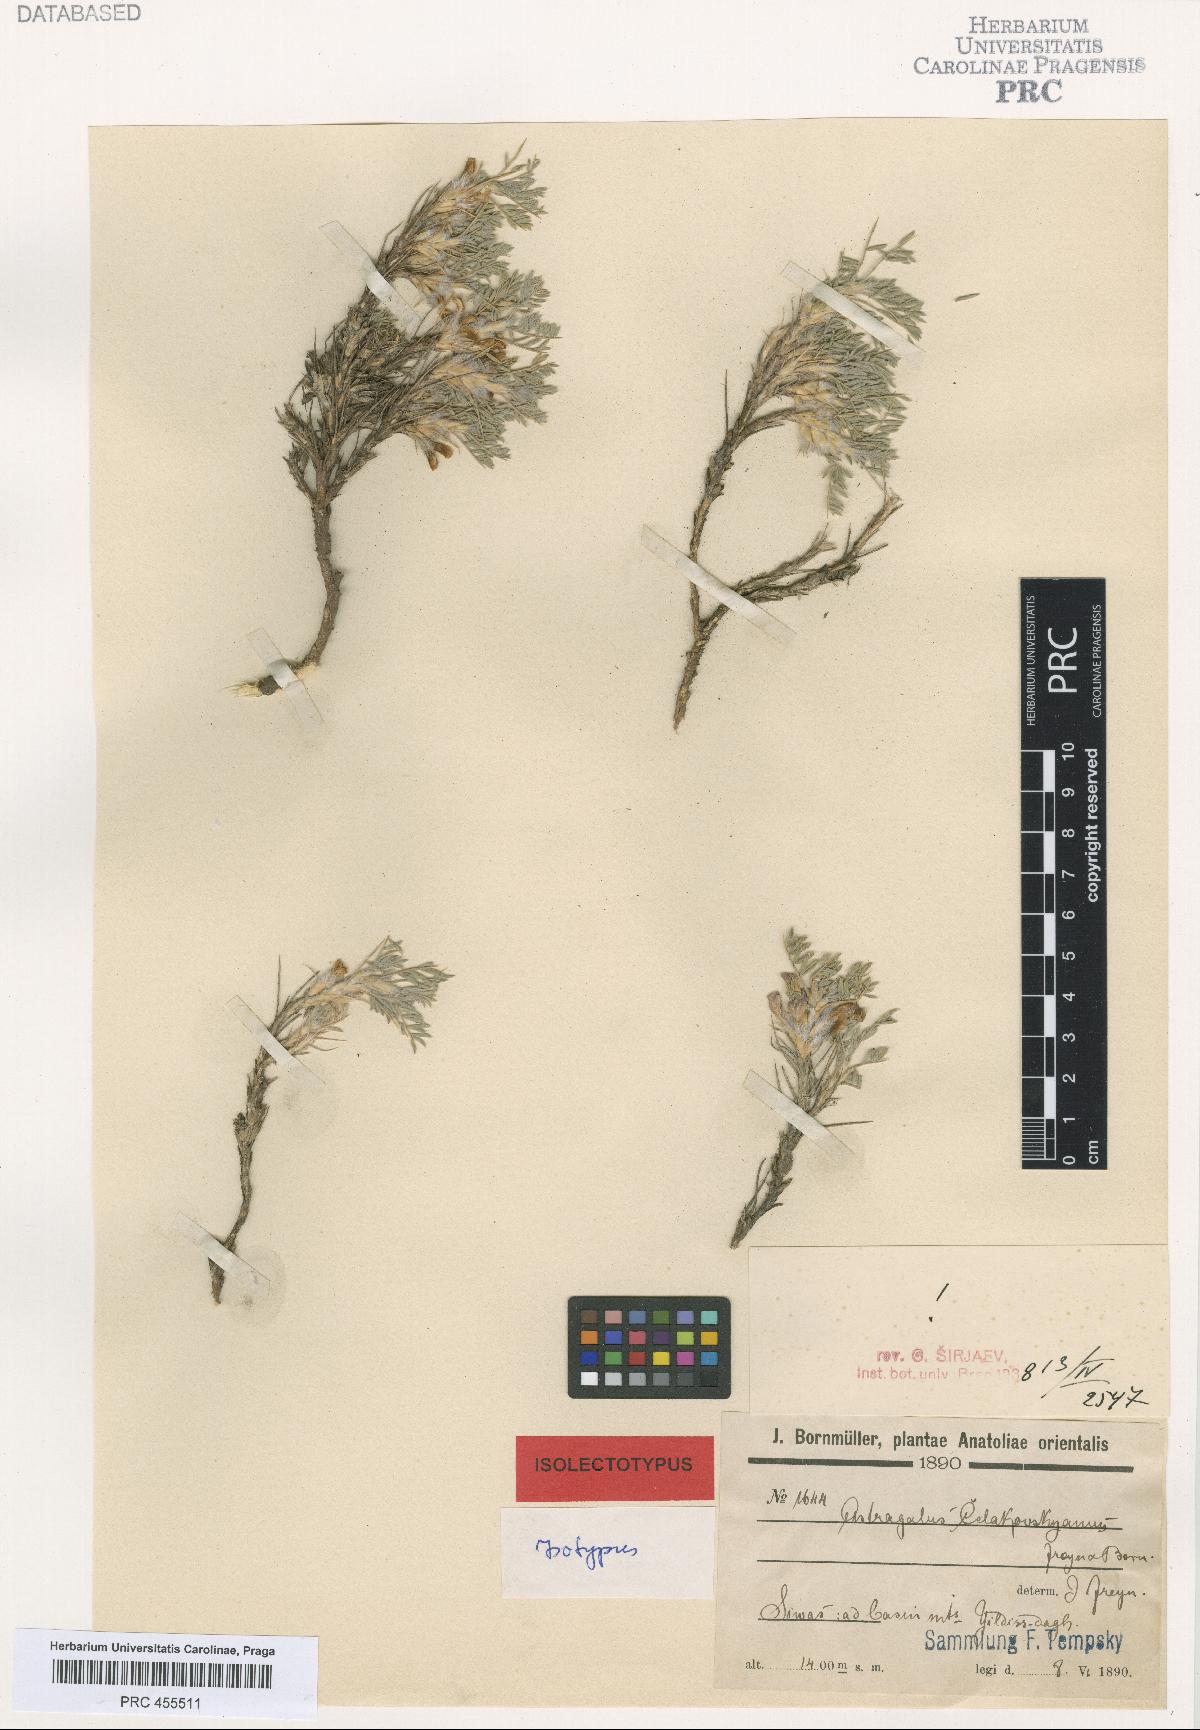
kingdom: Plantae
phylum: Tracheophyta
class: Magnoliopsida
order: Fabales
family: Fabaceae
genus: Astragalus
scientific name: Astragalus noeanus
